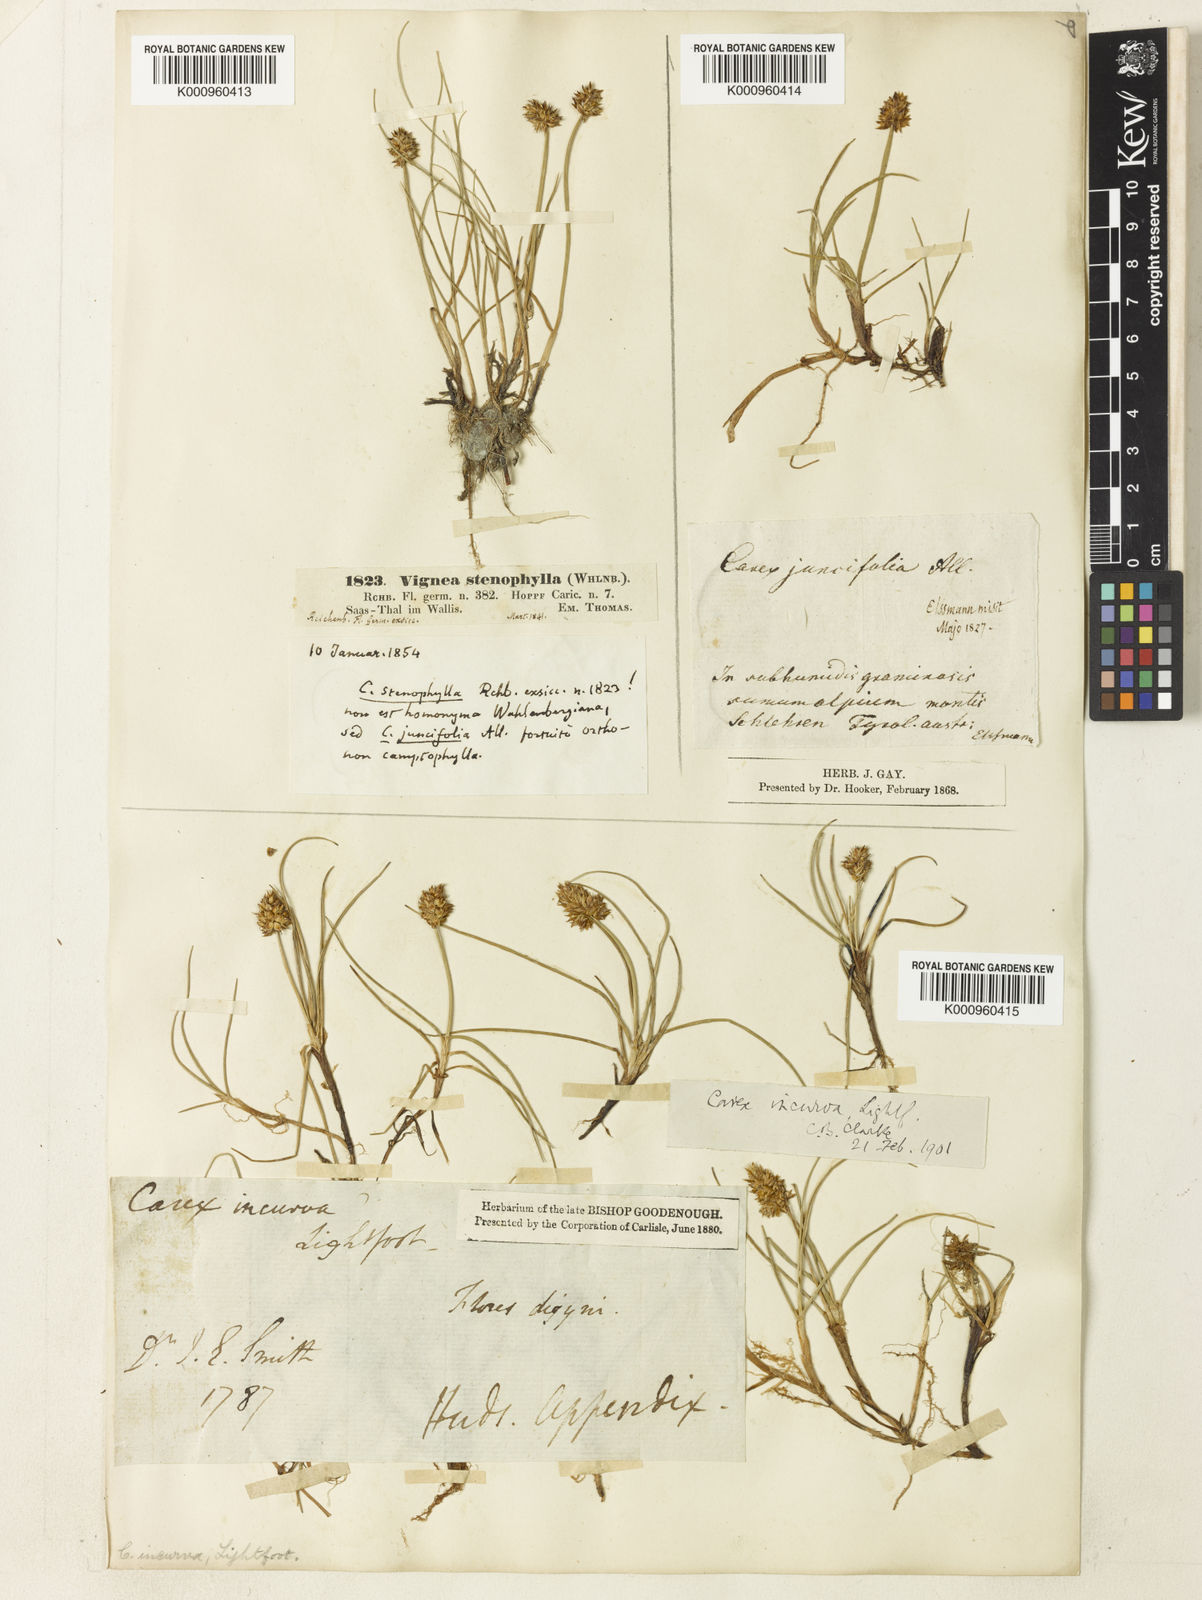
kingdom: Plantae
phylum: Tracheophyta
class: Liliopsida
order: Poales
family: Cyperaceae
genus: Carex
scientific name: Carex maritima
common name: Curved sedge
